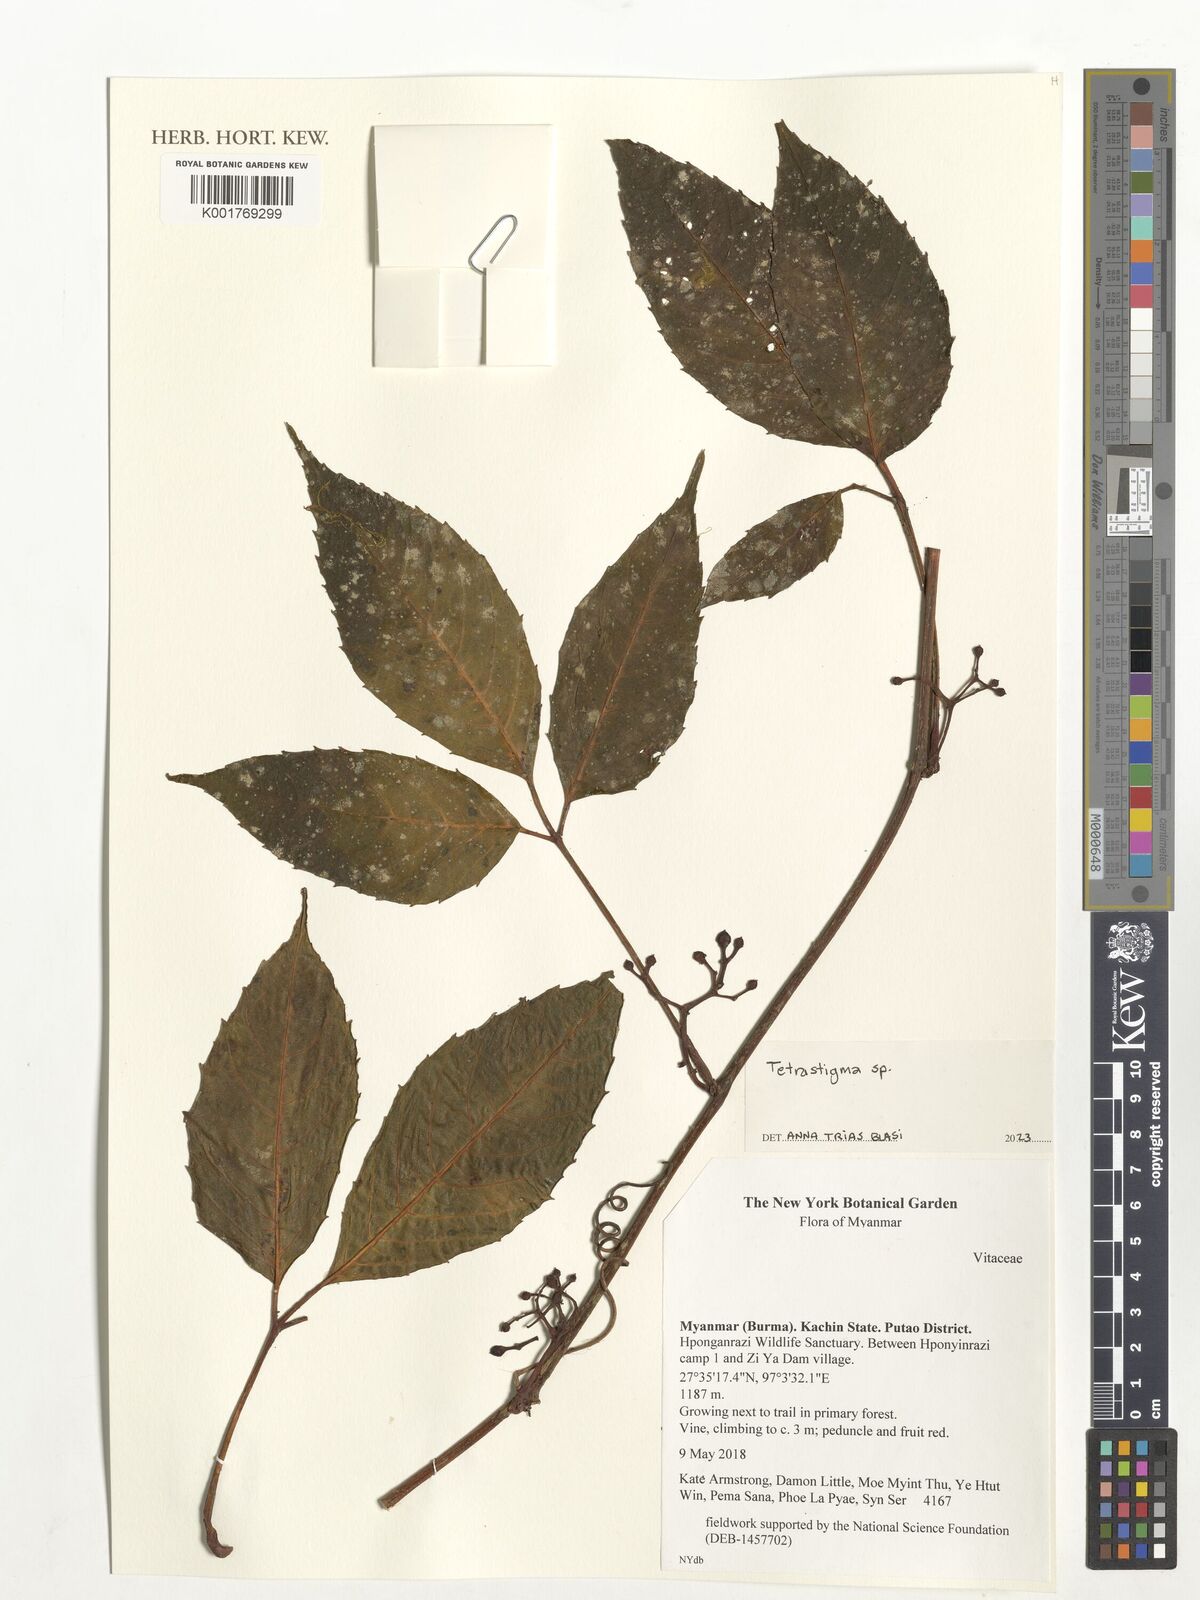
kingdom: Plantae
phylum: Tracheophyta
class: Magnoliopsida
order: Vitales
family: Vitaceae
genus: Tetrastigma
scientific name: Tetrastigma
